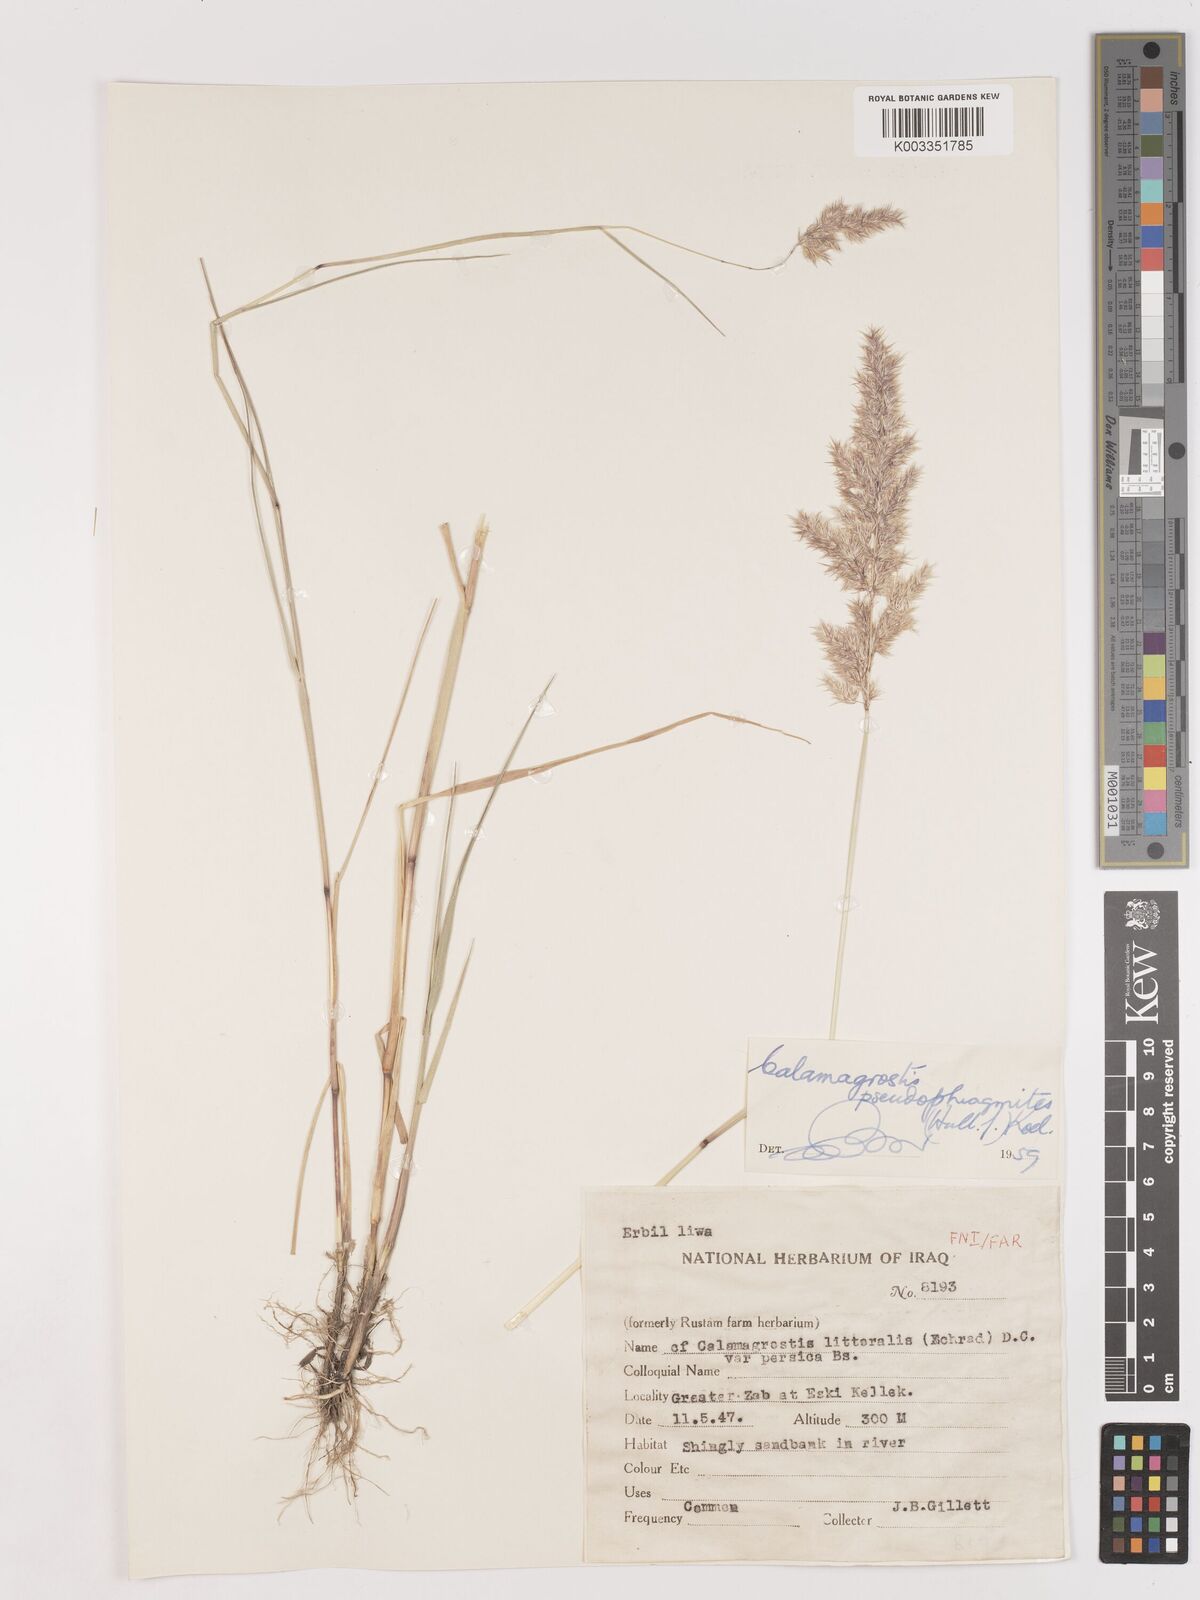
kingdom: Plantae
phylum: Tracheophyta
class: Liliopsida
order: Poales
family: Poaceae
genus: Calamagrostis
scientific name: Calamagrostis pseudophragmites
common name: Coastal small-reed
